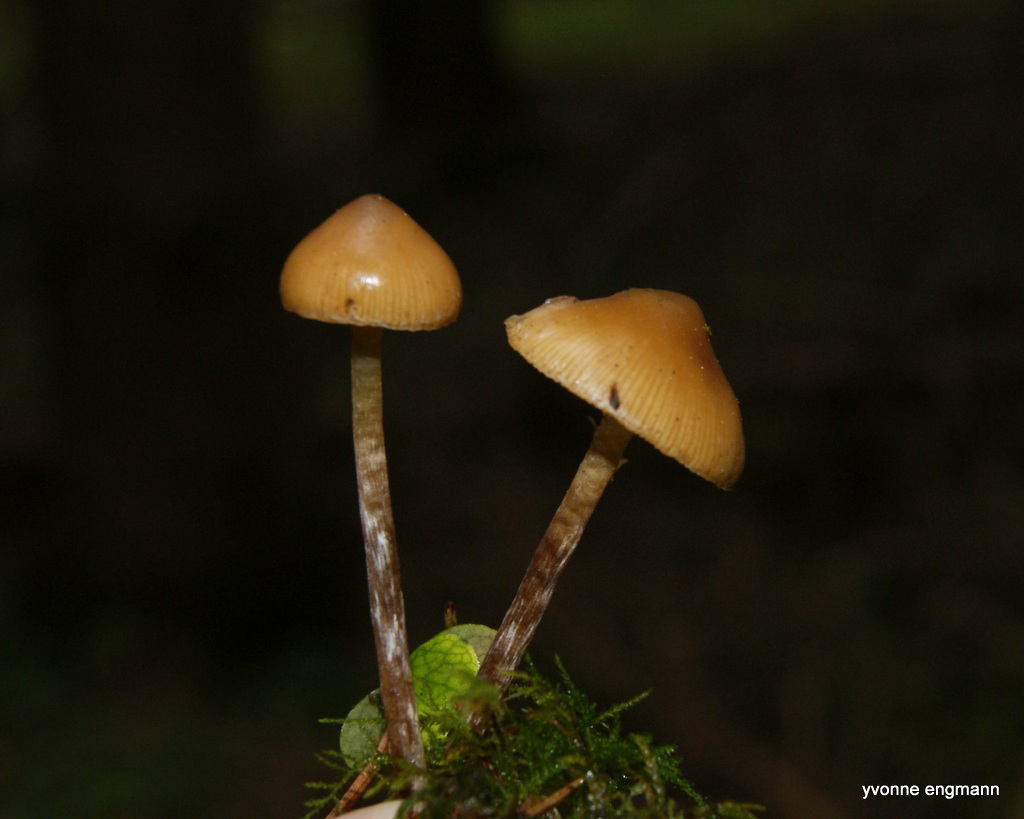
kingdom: Fungi
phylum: Basidiomycota
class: Agaricomycetes
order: Agaricales
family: Hymenogastraceae
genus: Galerina
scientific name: Galerina sideroides
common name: træflis-hjelmhat
